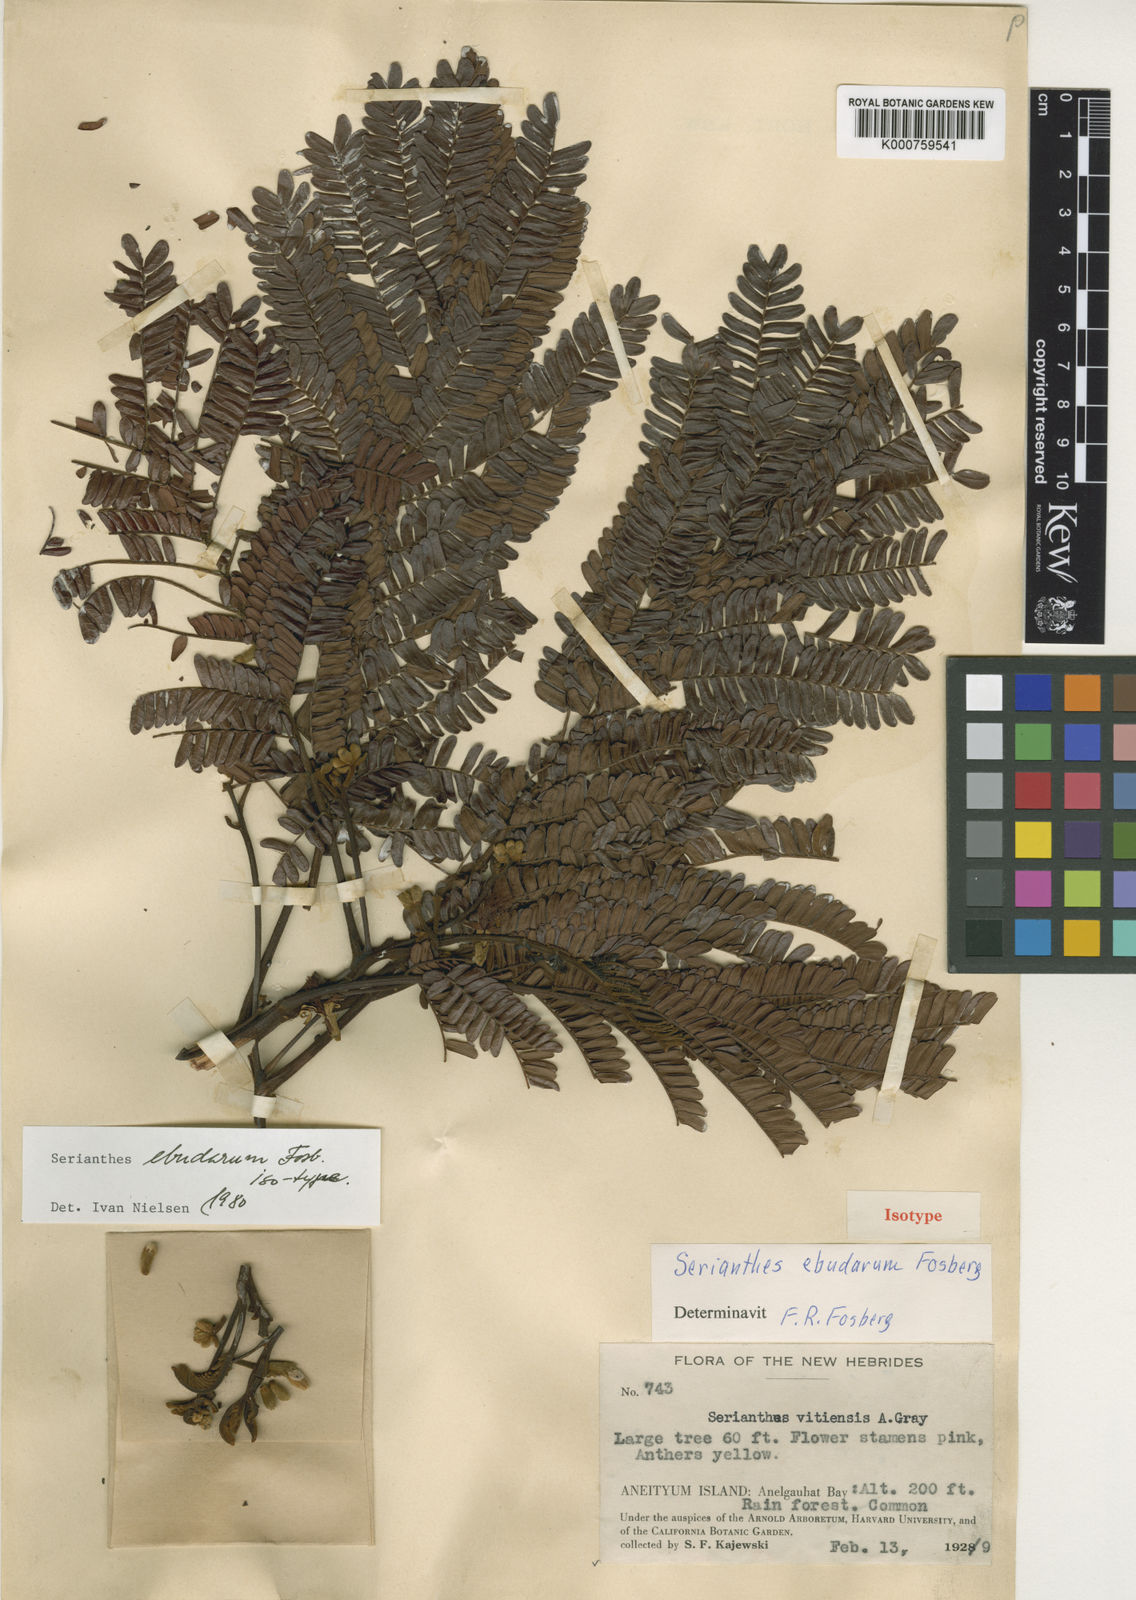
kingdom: Plantae
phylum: Tracheophyta
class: Magnoliopsida
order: Fabales
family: Fabaceae
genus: Serianthes
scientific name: Serianthes ebudarum
